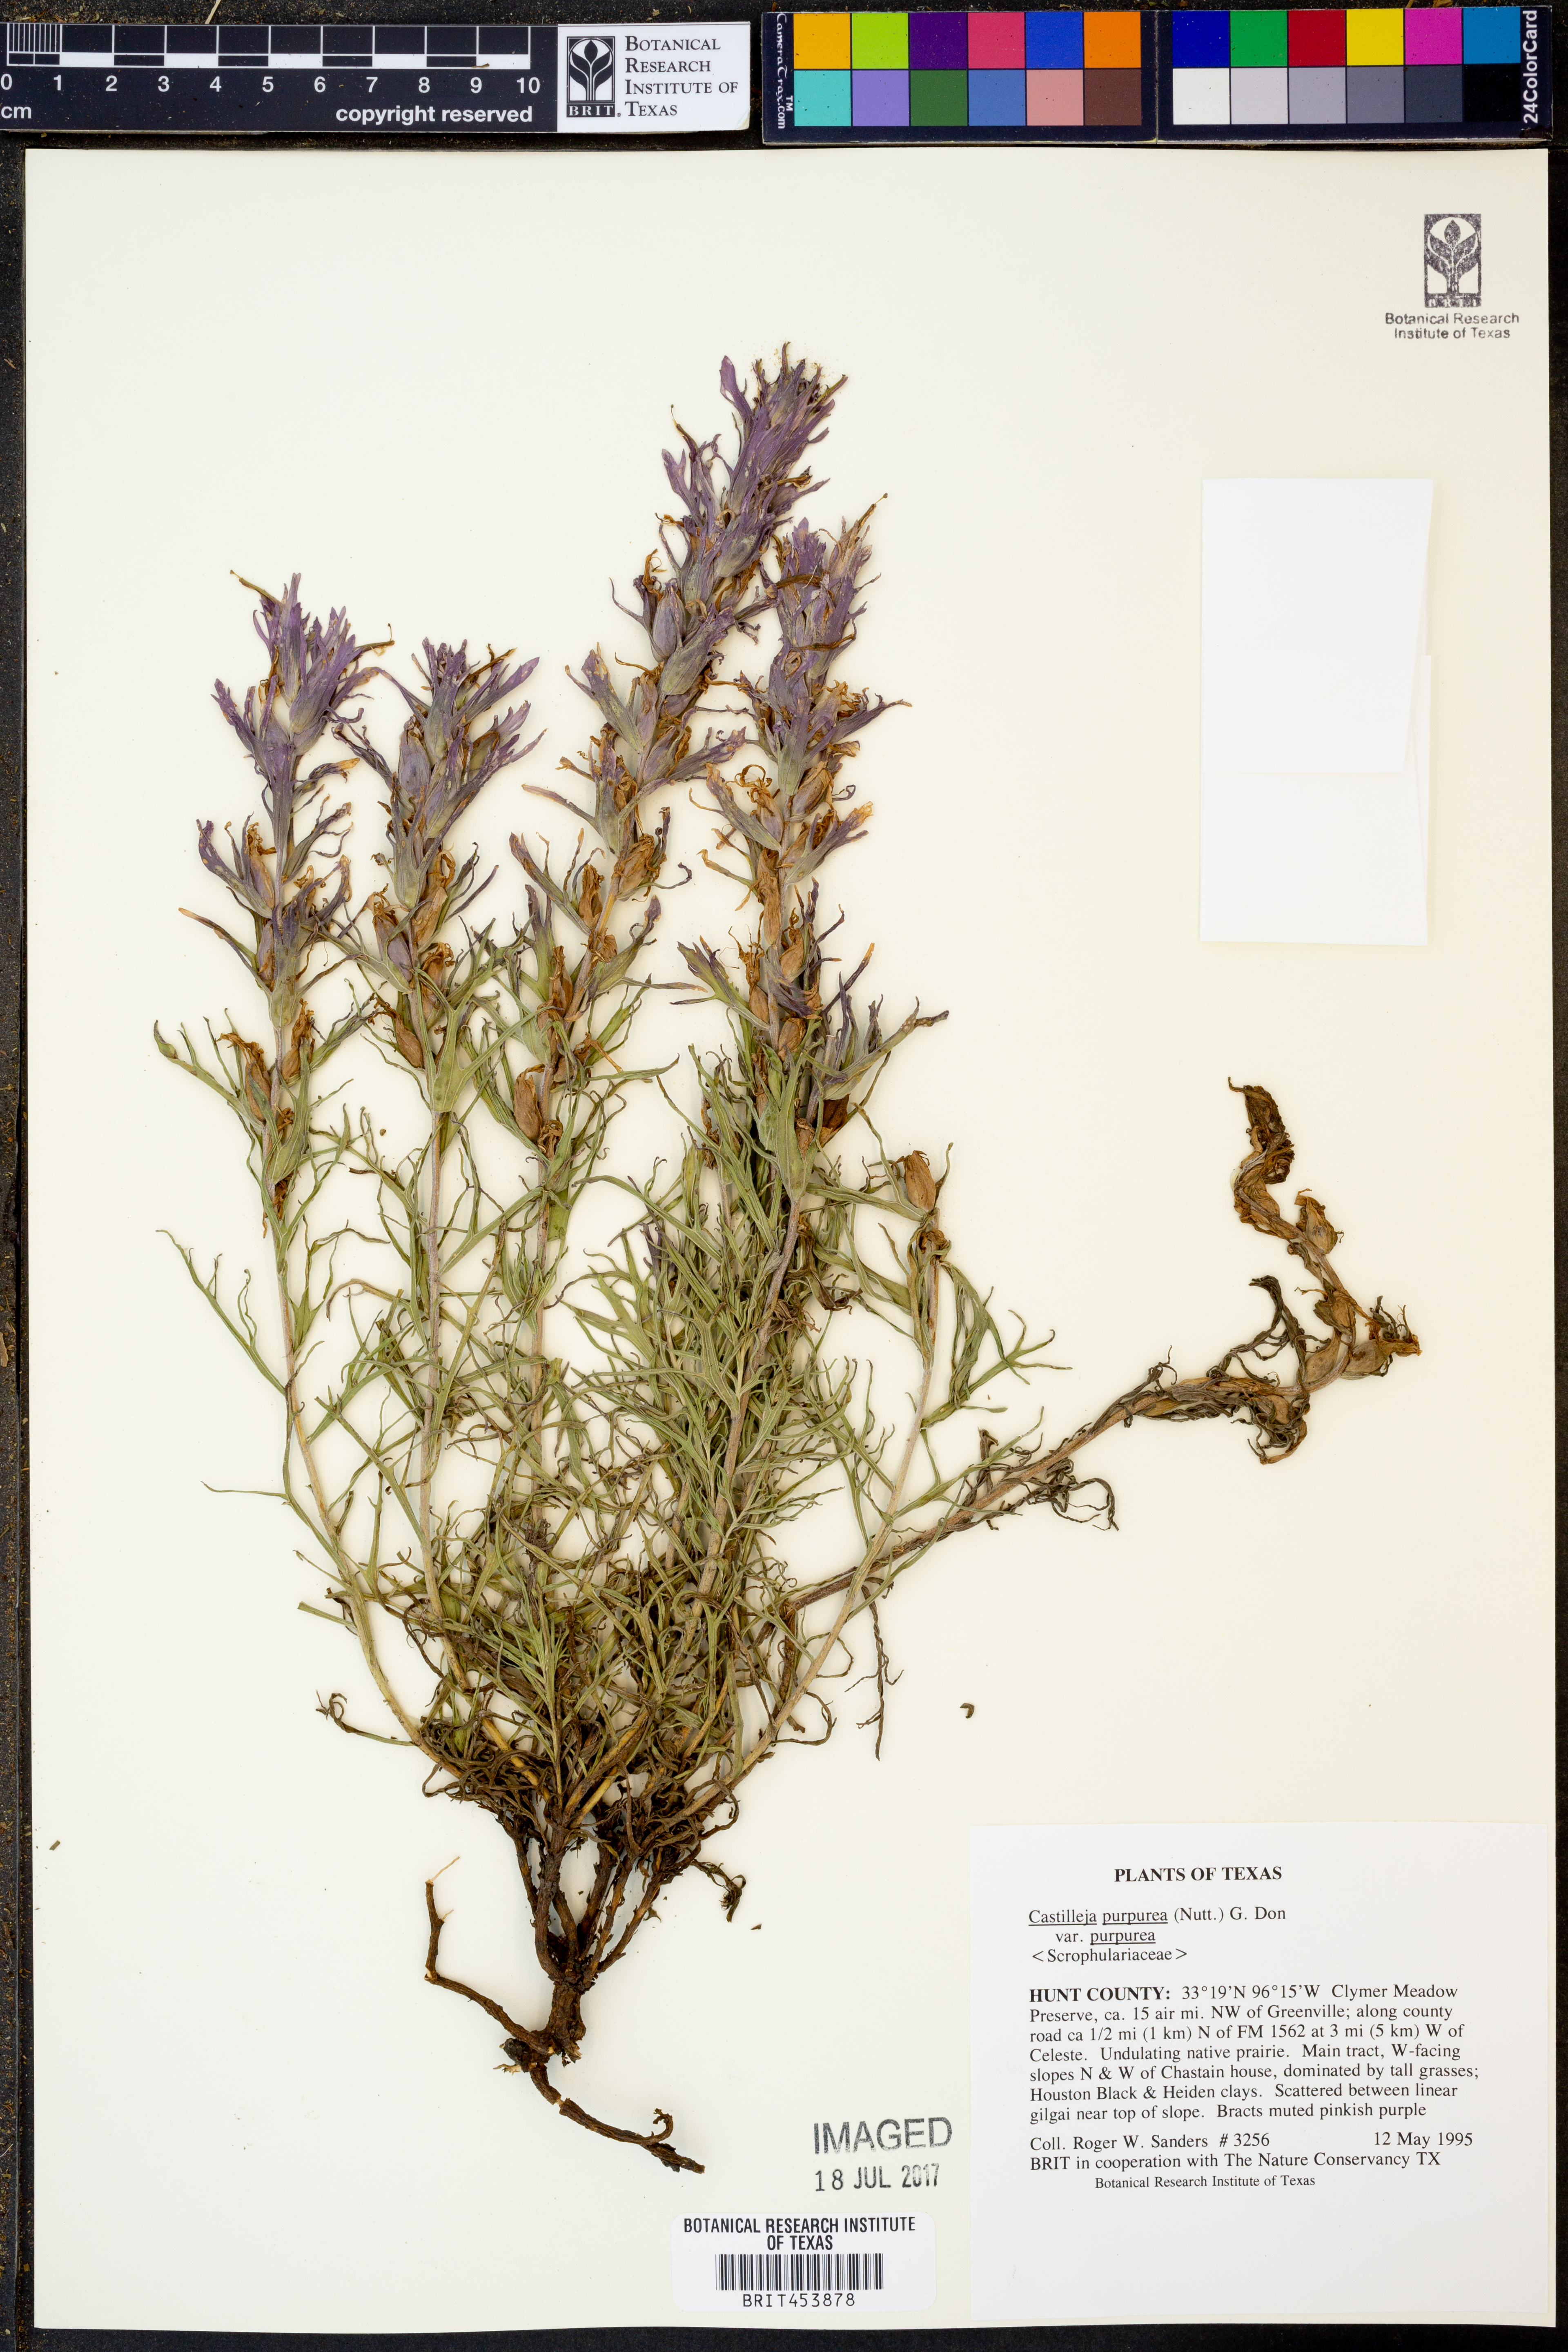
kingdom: Plantae
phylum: Tracheophyta
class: Magnoliopsida
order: Lamiales
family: Orobanchaceae
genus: Castilleja
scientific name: Castilleja purpurea
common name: Plains paintbrush
